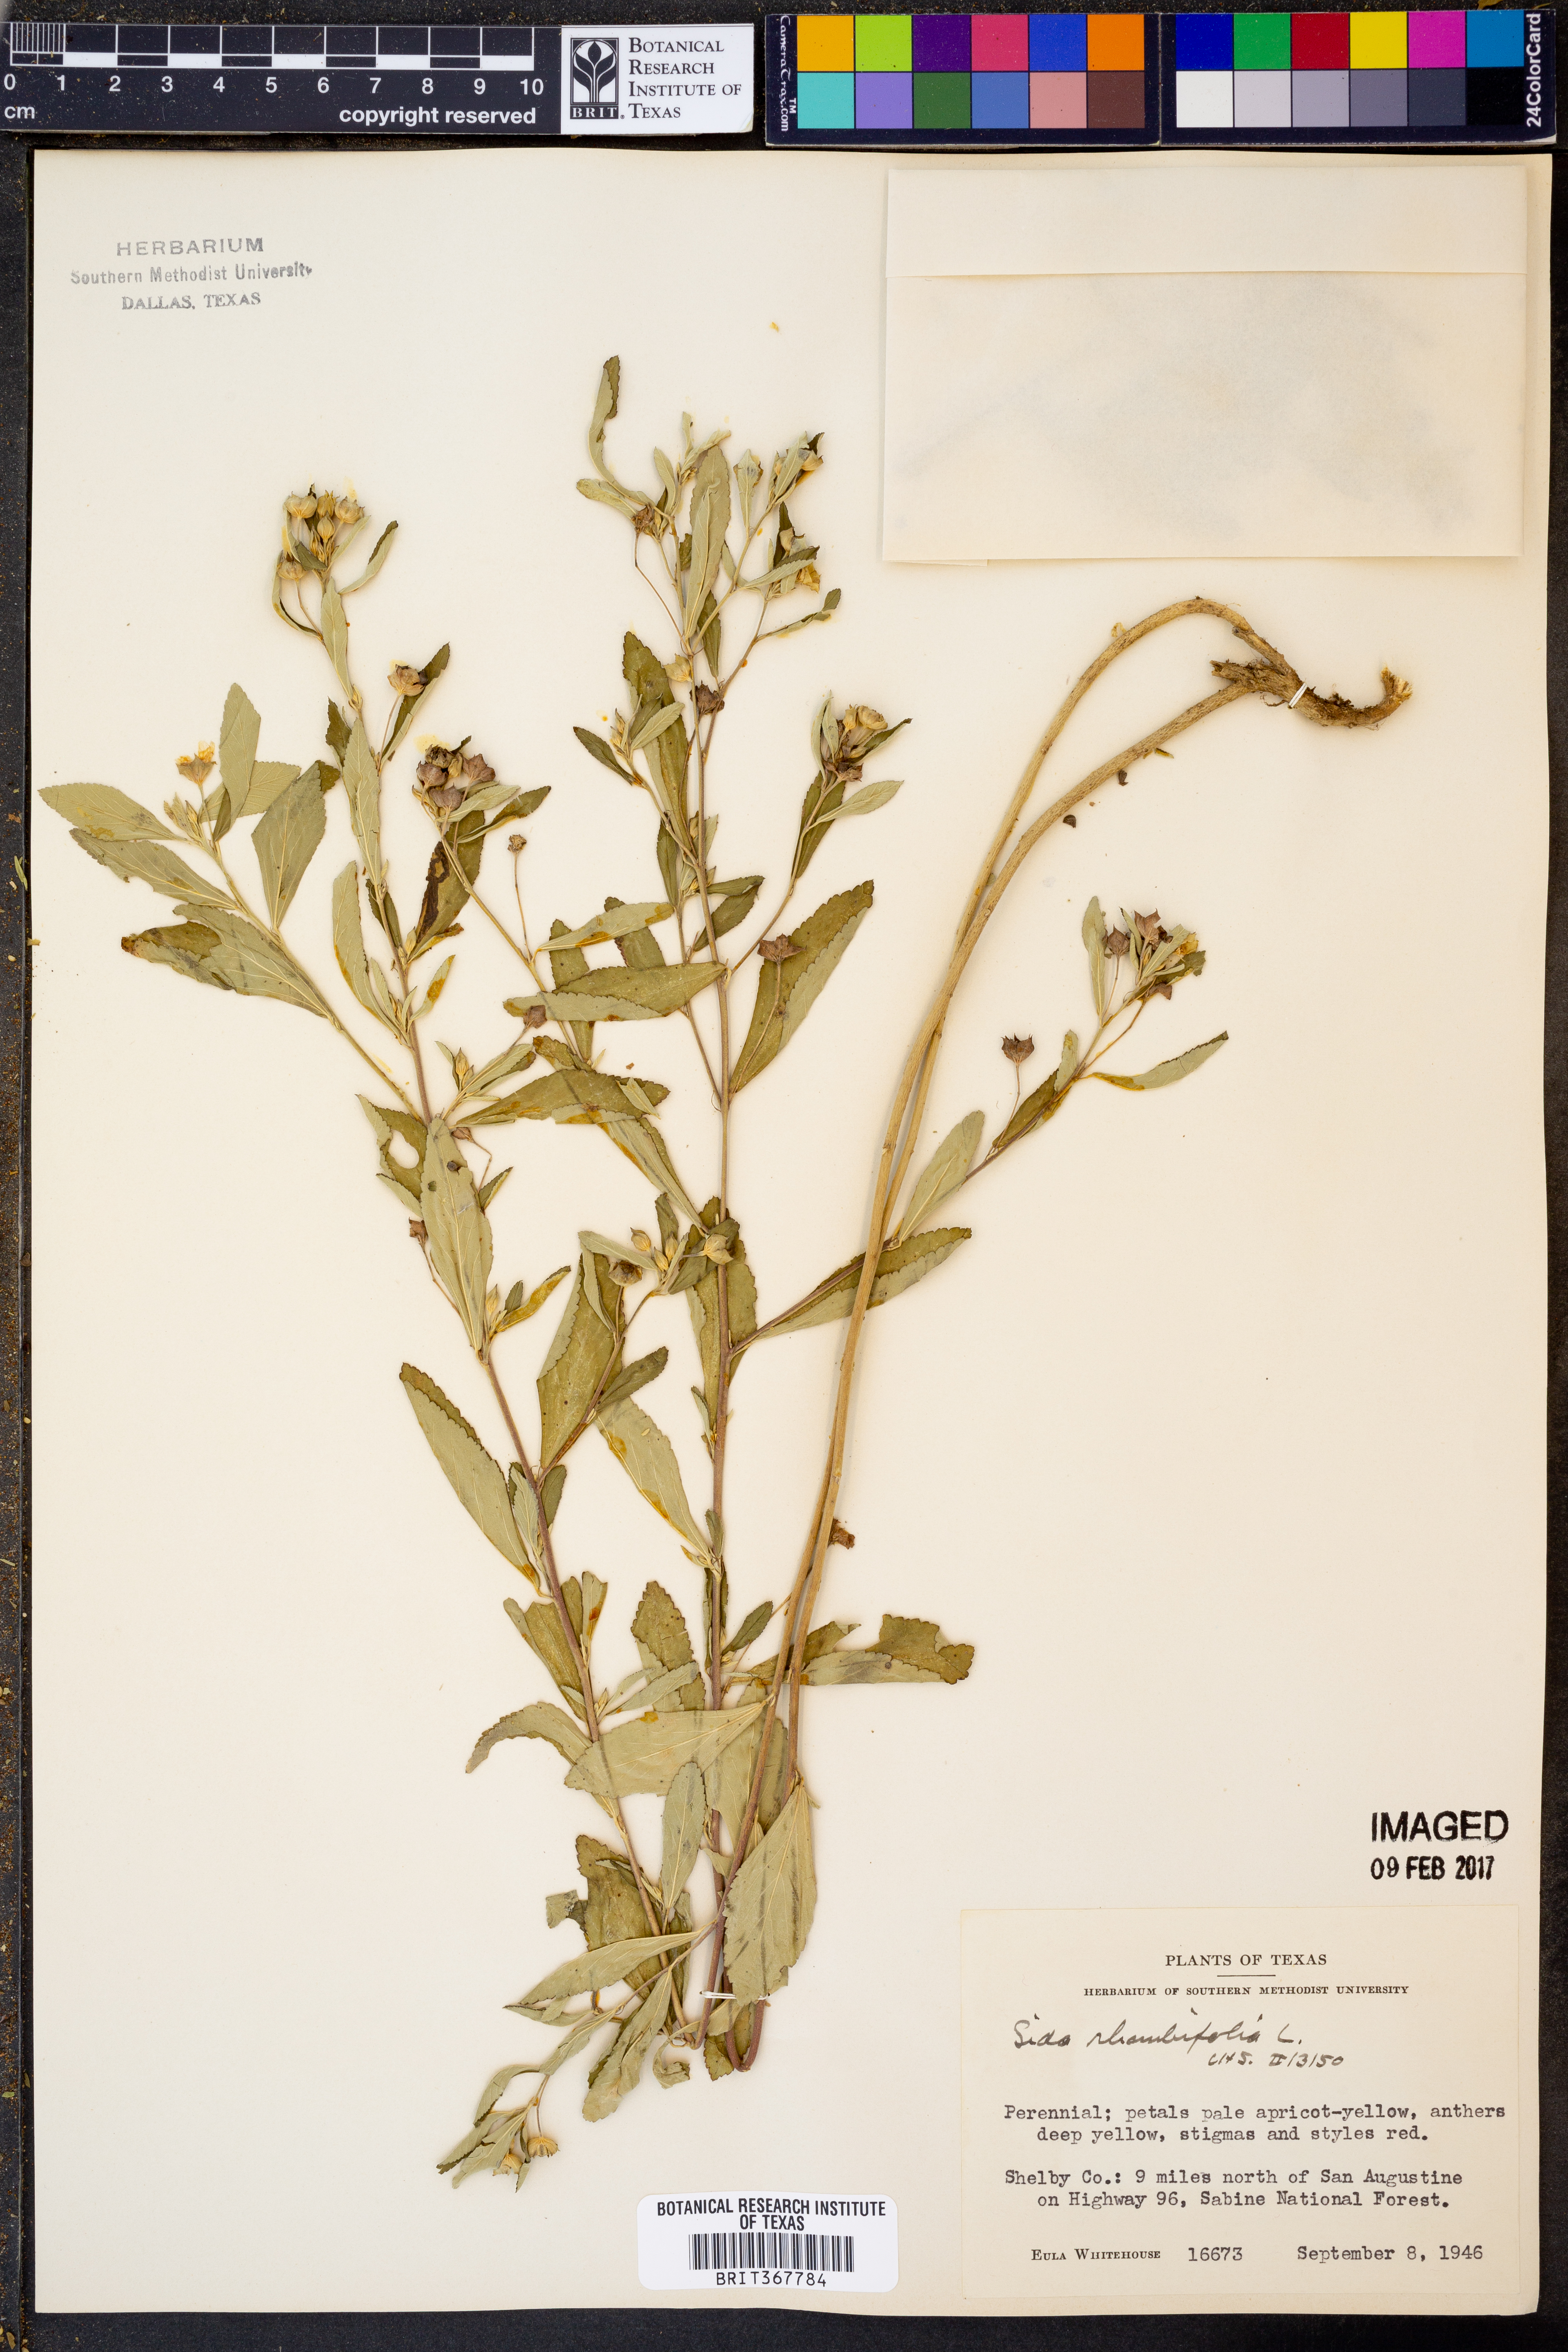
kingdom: Plantae
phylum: Tracheophyta
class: Magnoliopsida
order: Malvales
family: Malvaceae
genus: Sida
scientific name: Sida rhombifolia
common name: Queensland-hemp
